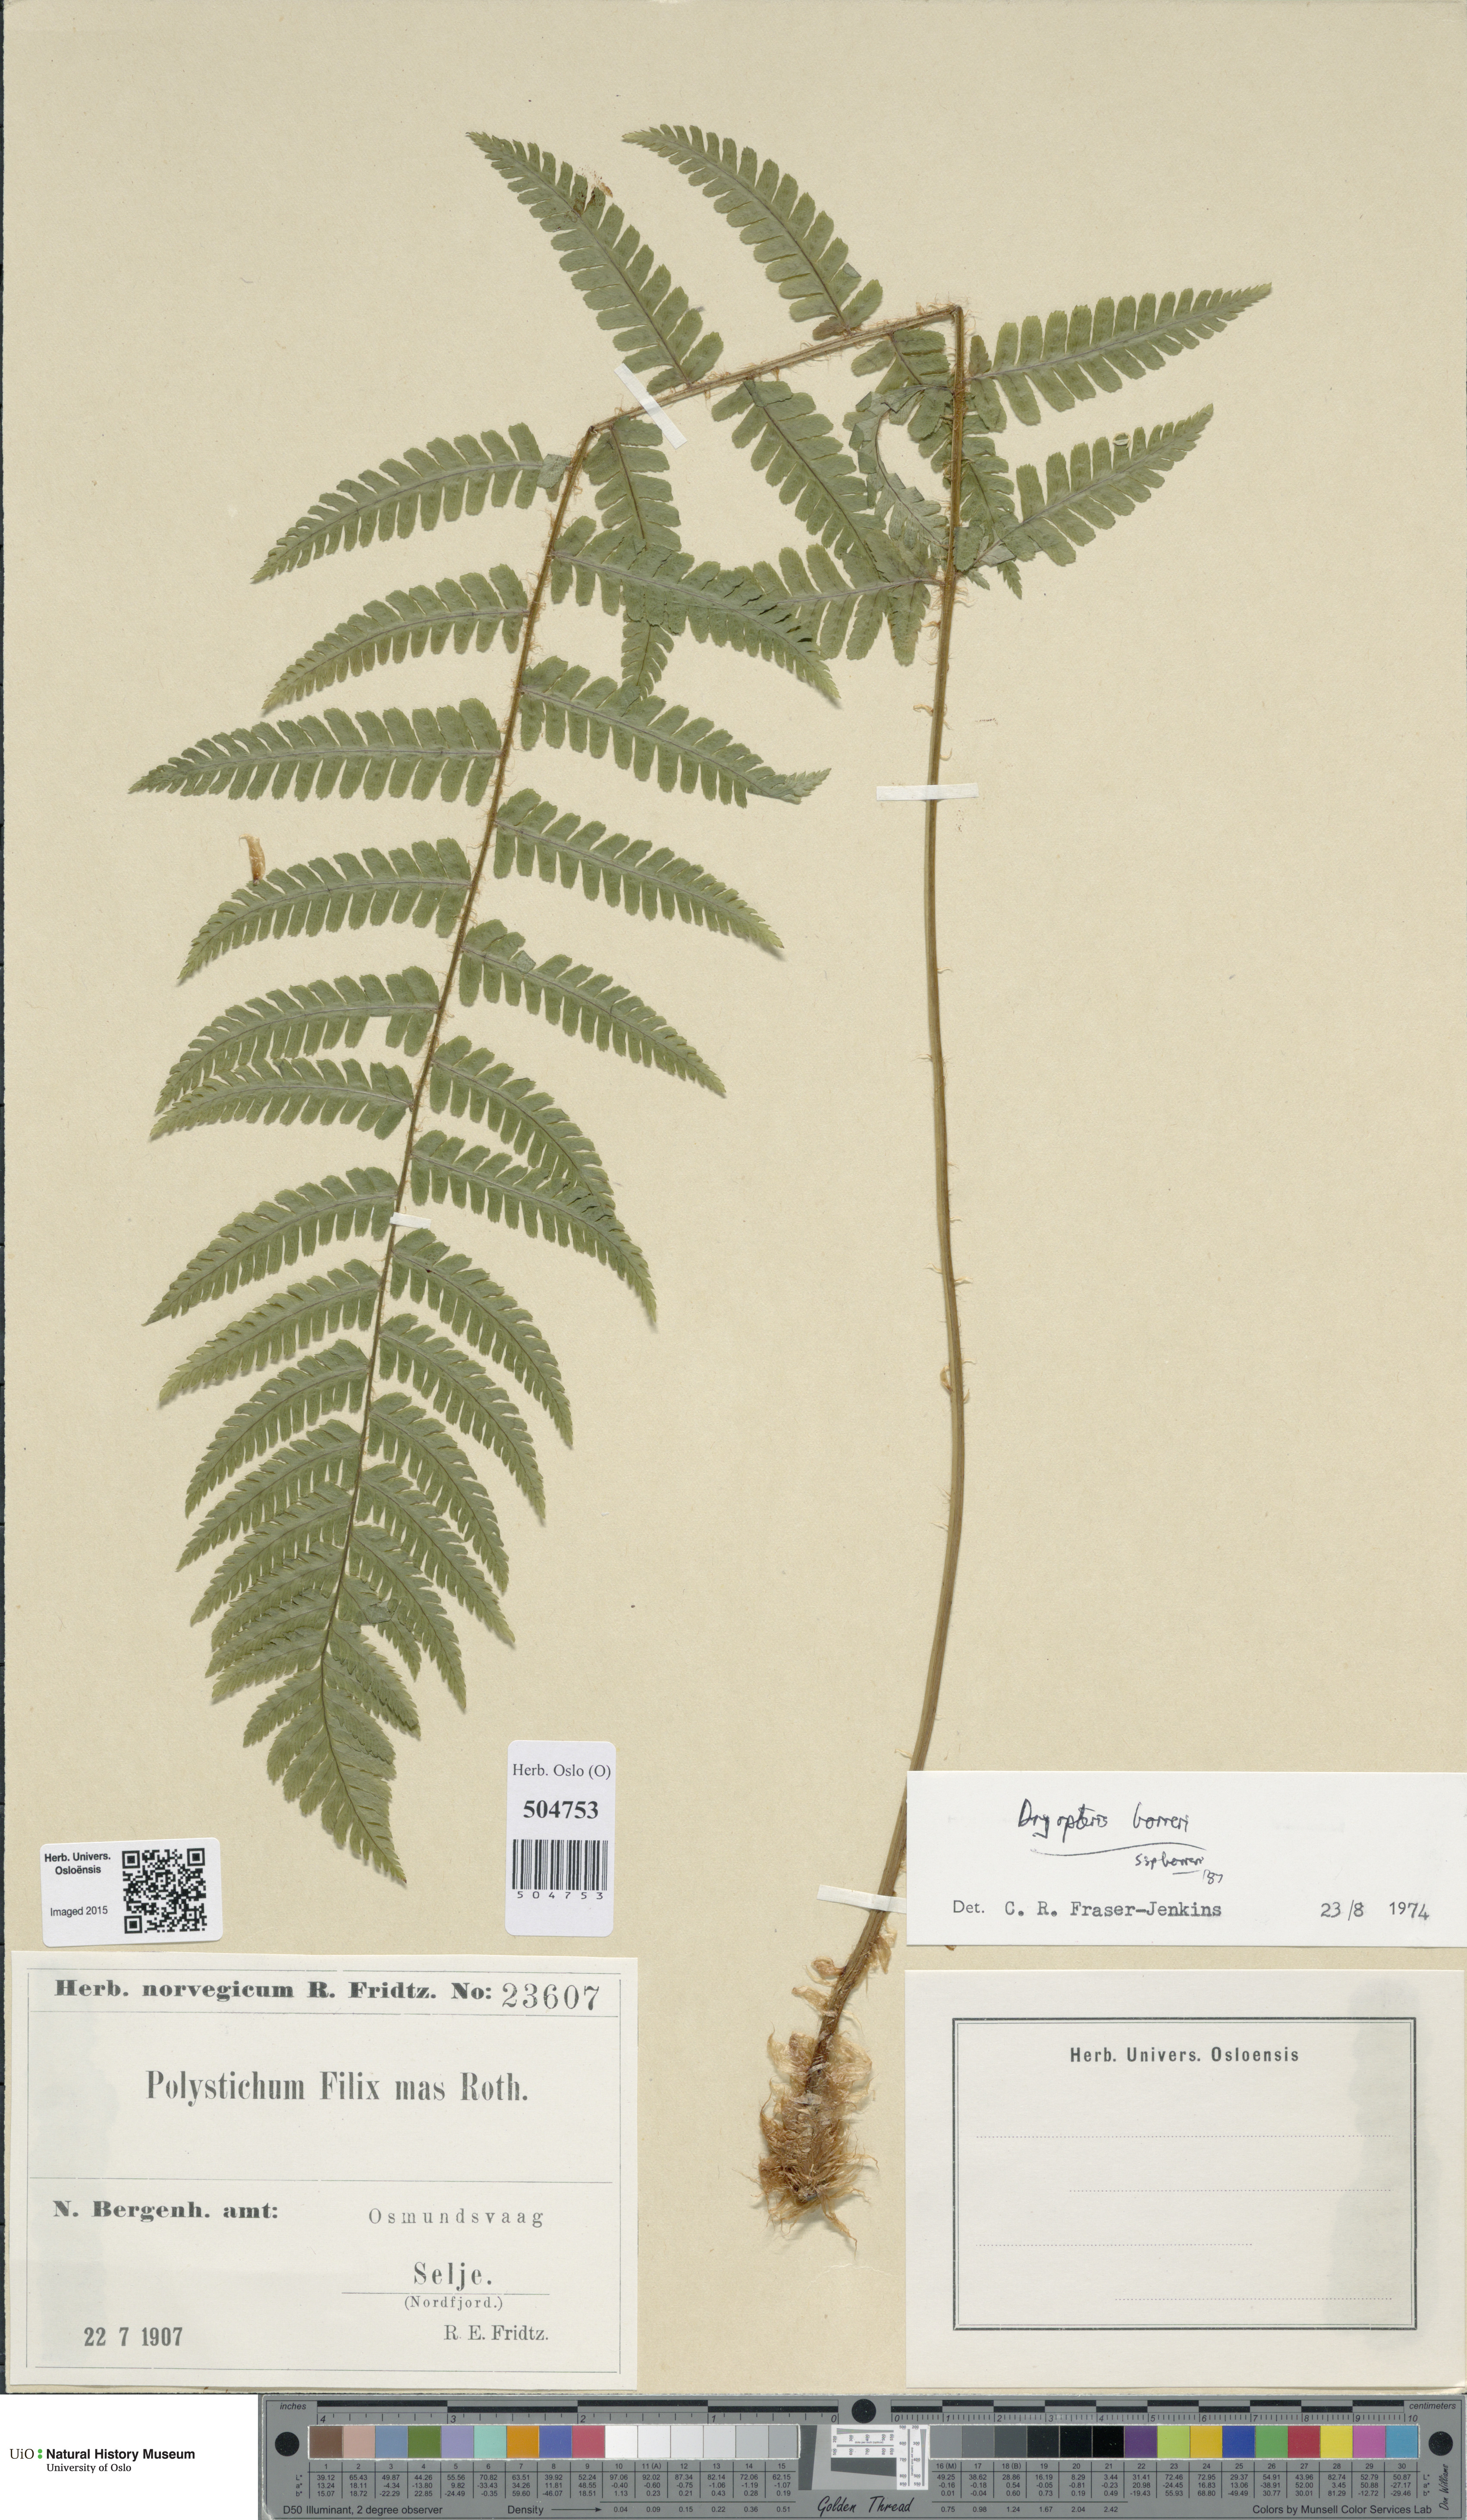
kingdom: Plantae
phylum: Tracheophyta
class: Polypodiopsida
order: Polypodiales
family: Dryopteridaceae
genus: Dryopteris
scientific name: Dryopteris borreri
